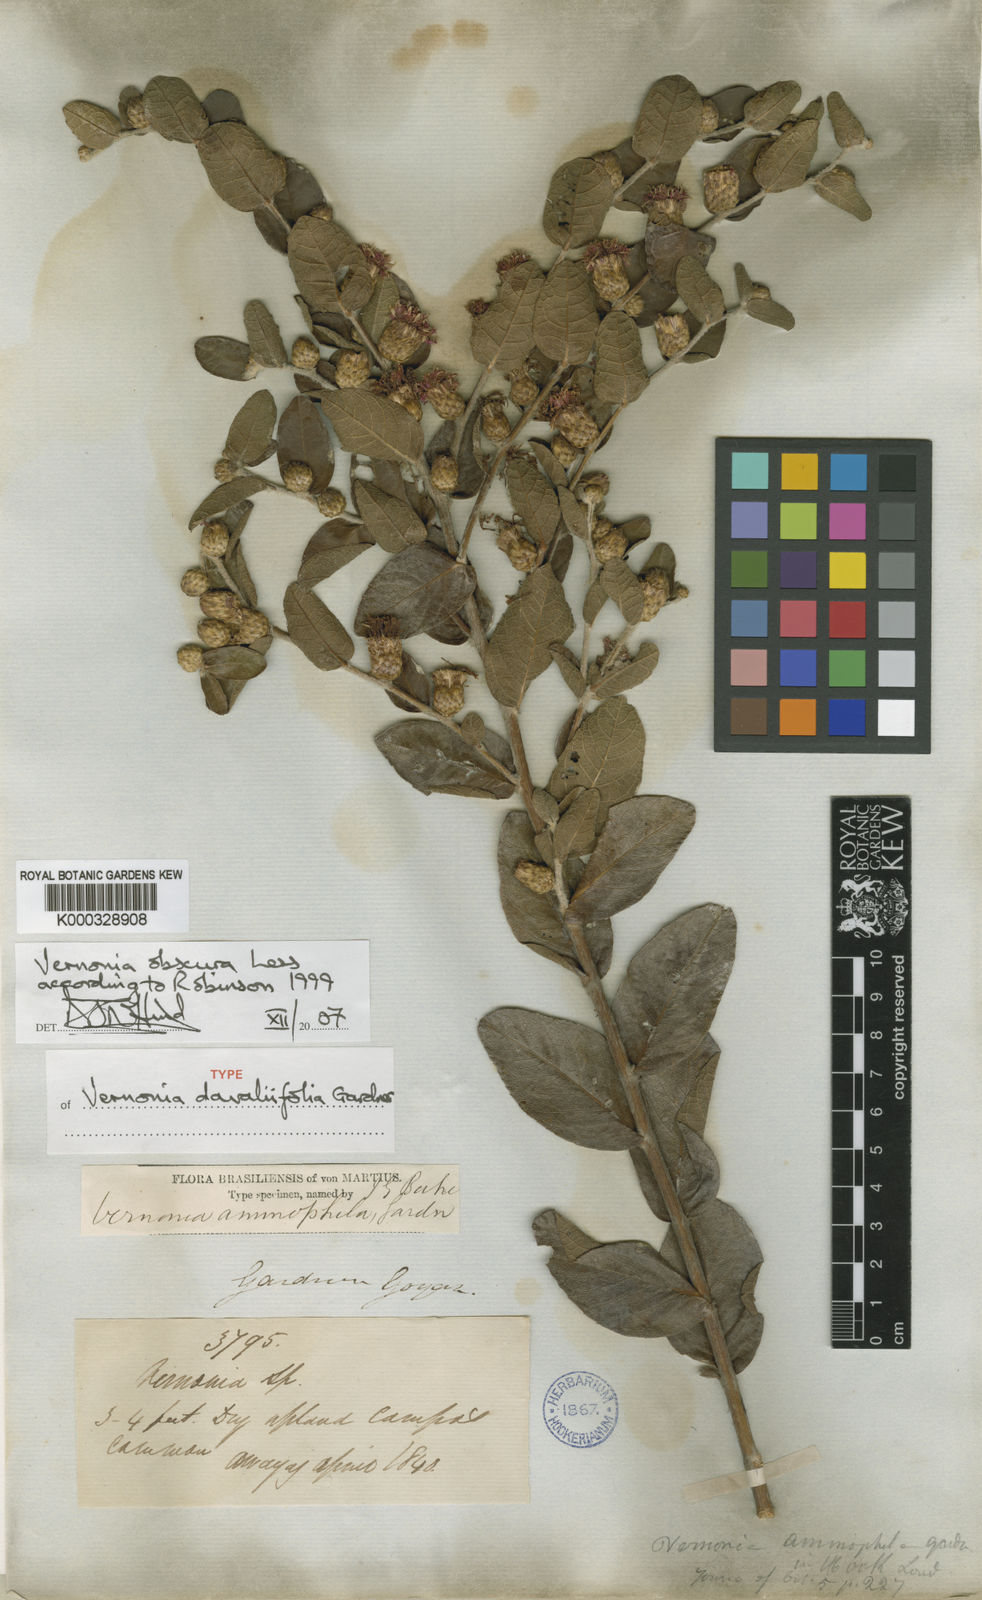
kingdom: Plantae
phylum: Tracheophyta
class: Magnoliopsida
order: Asterales
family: Asteraceae
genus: Lessingianthus
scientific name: Lessingianthus obscurus
